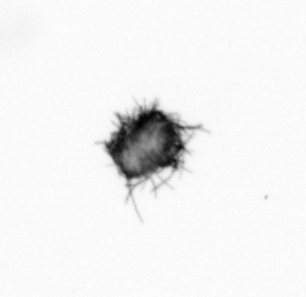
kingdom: Bacteria
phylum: Cyanobacteria
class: Cyanobacteriia
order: Cyanobacteriales
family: Microcoleaceae
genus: Trichodesmium
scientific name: Trichodesmium
